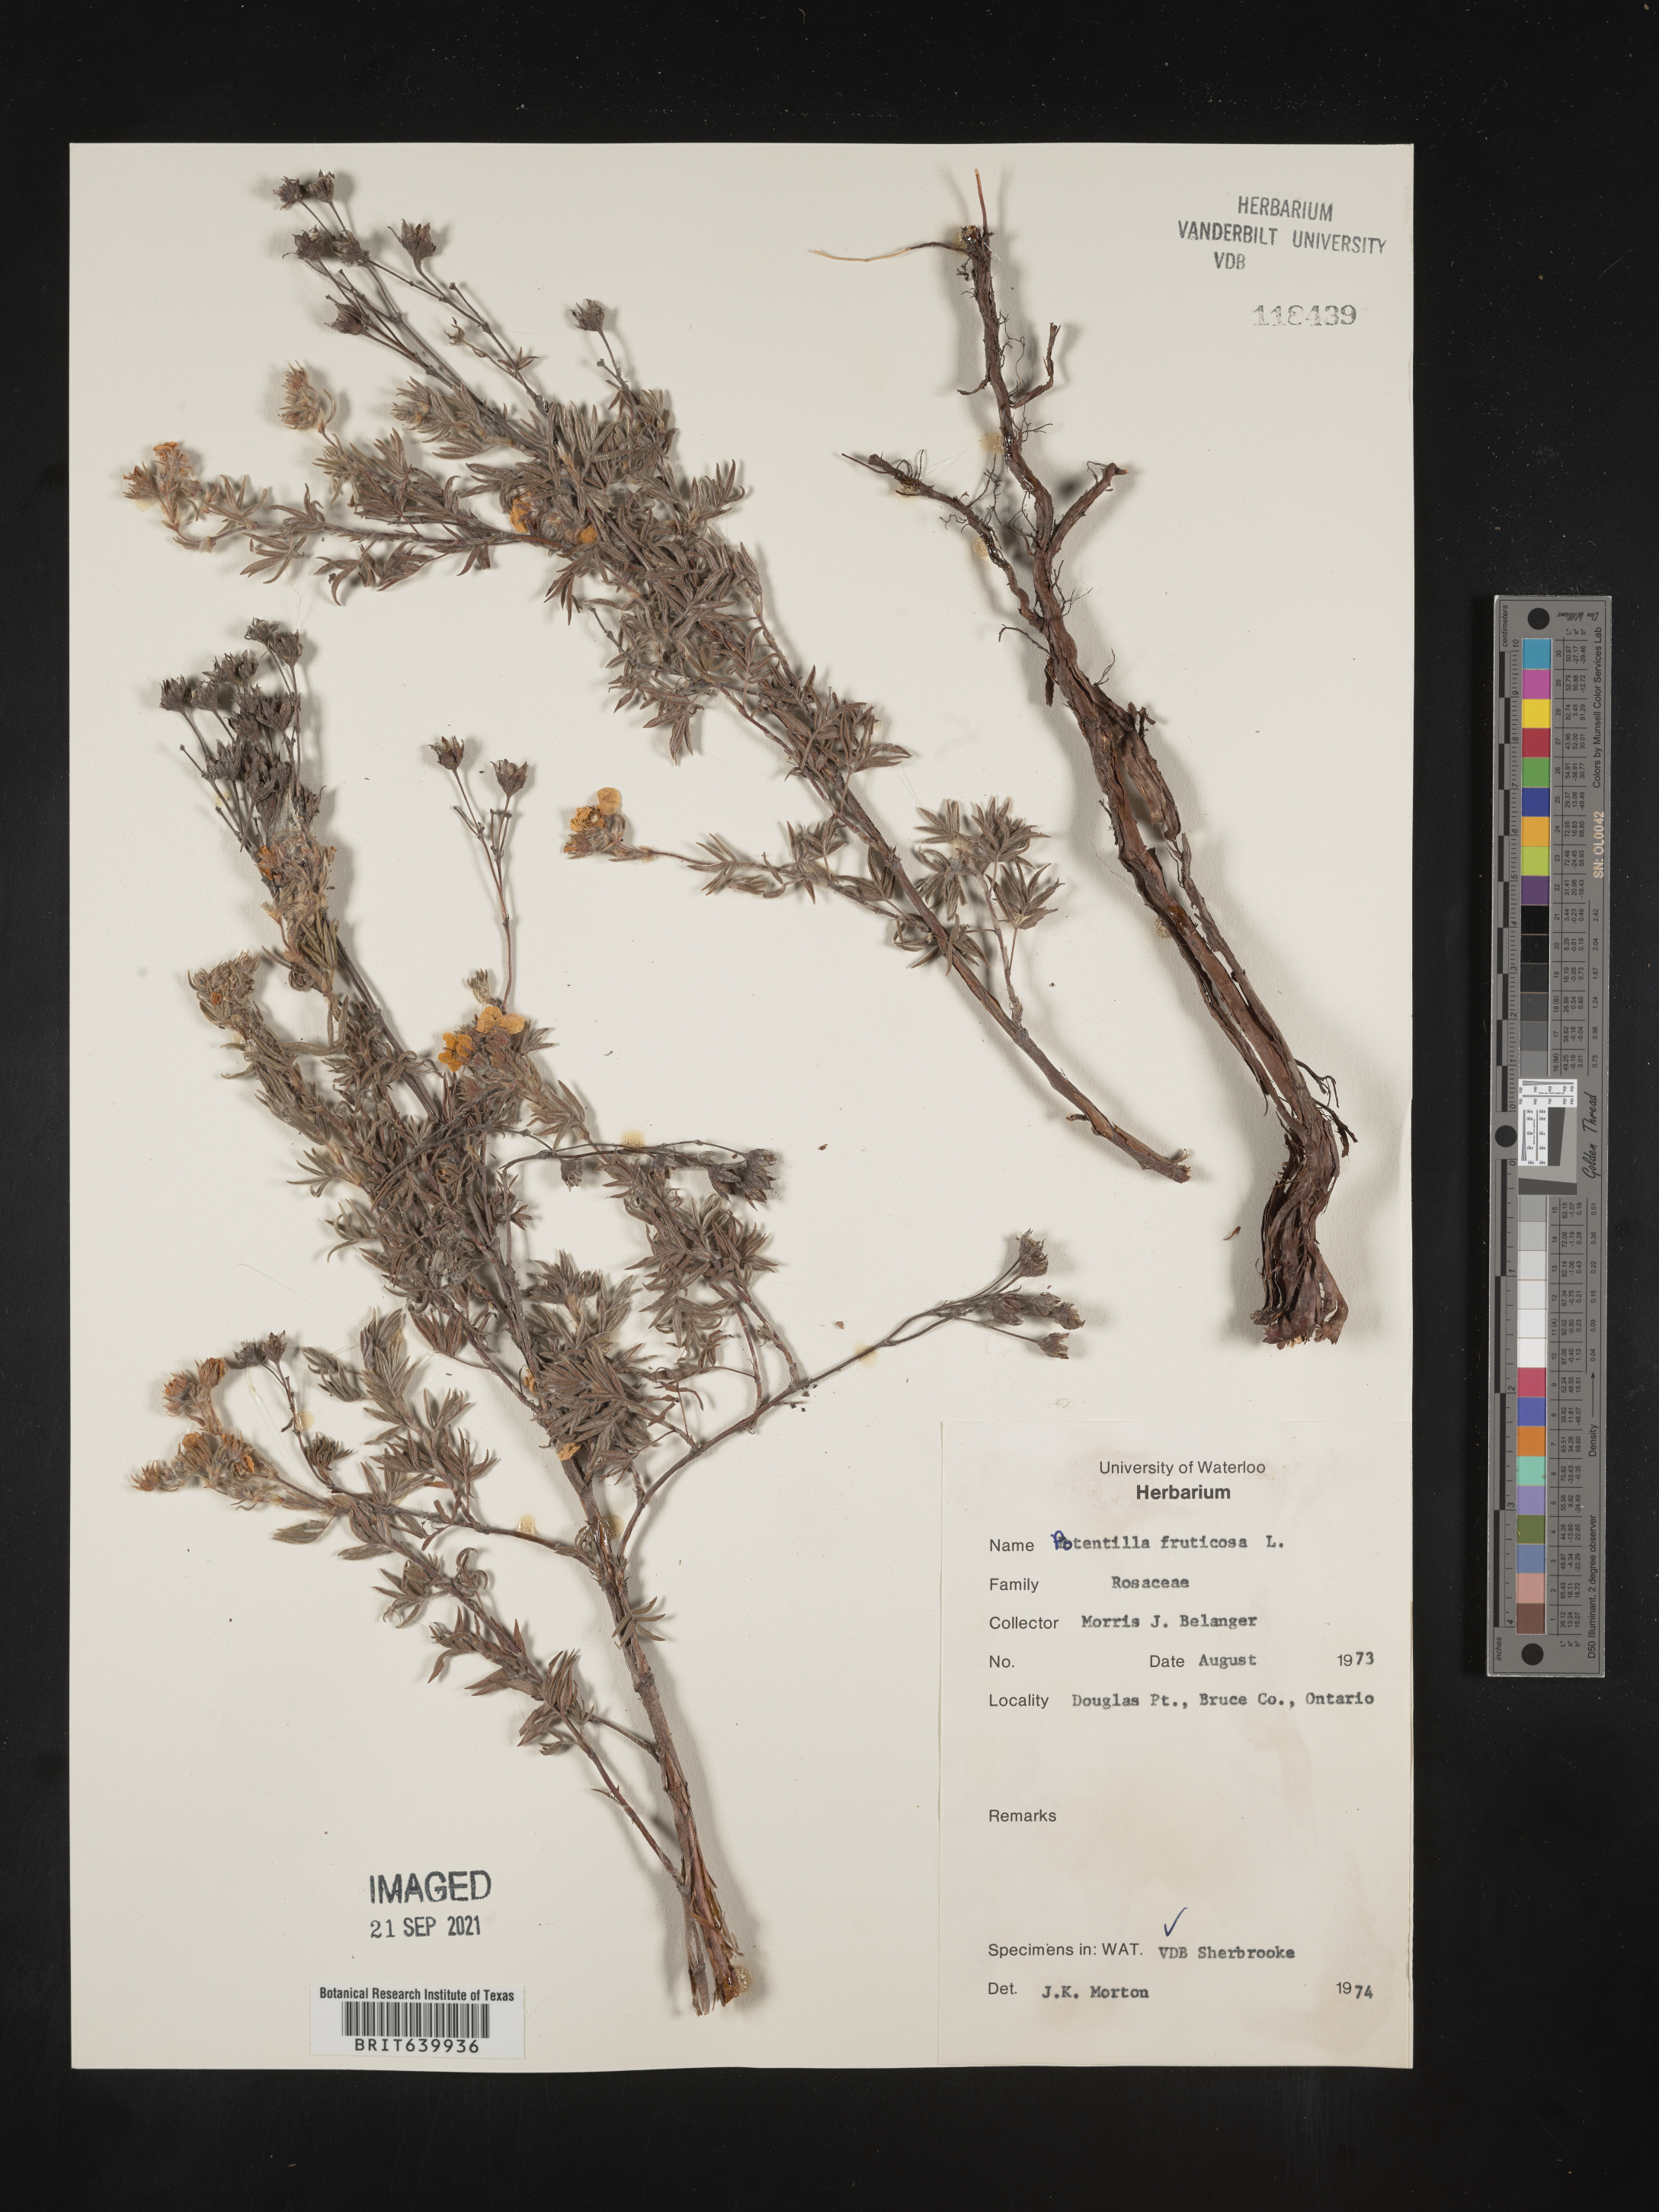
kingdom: Plantae
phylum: Tracheophyta
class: Magnoliopsida
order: Rosales
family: Rosaceae
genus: Potentilla
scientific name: Potentilla
